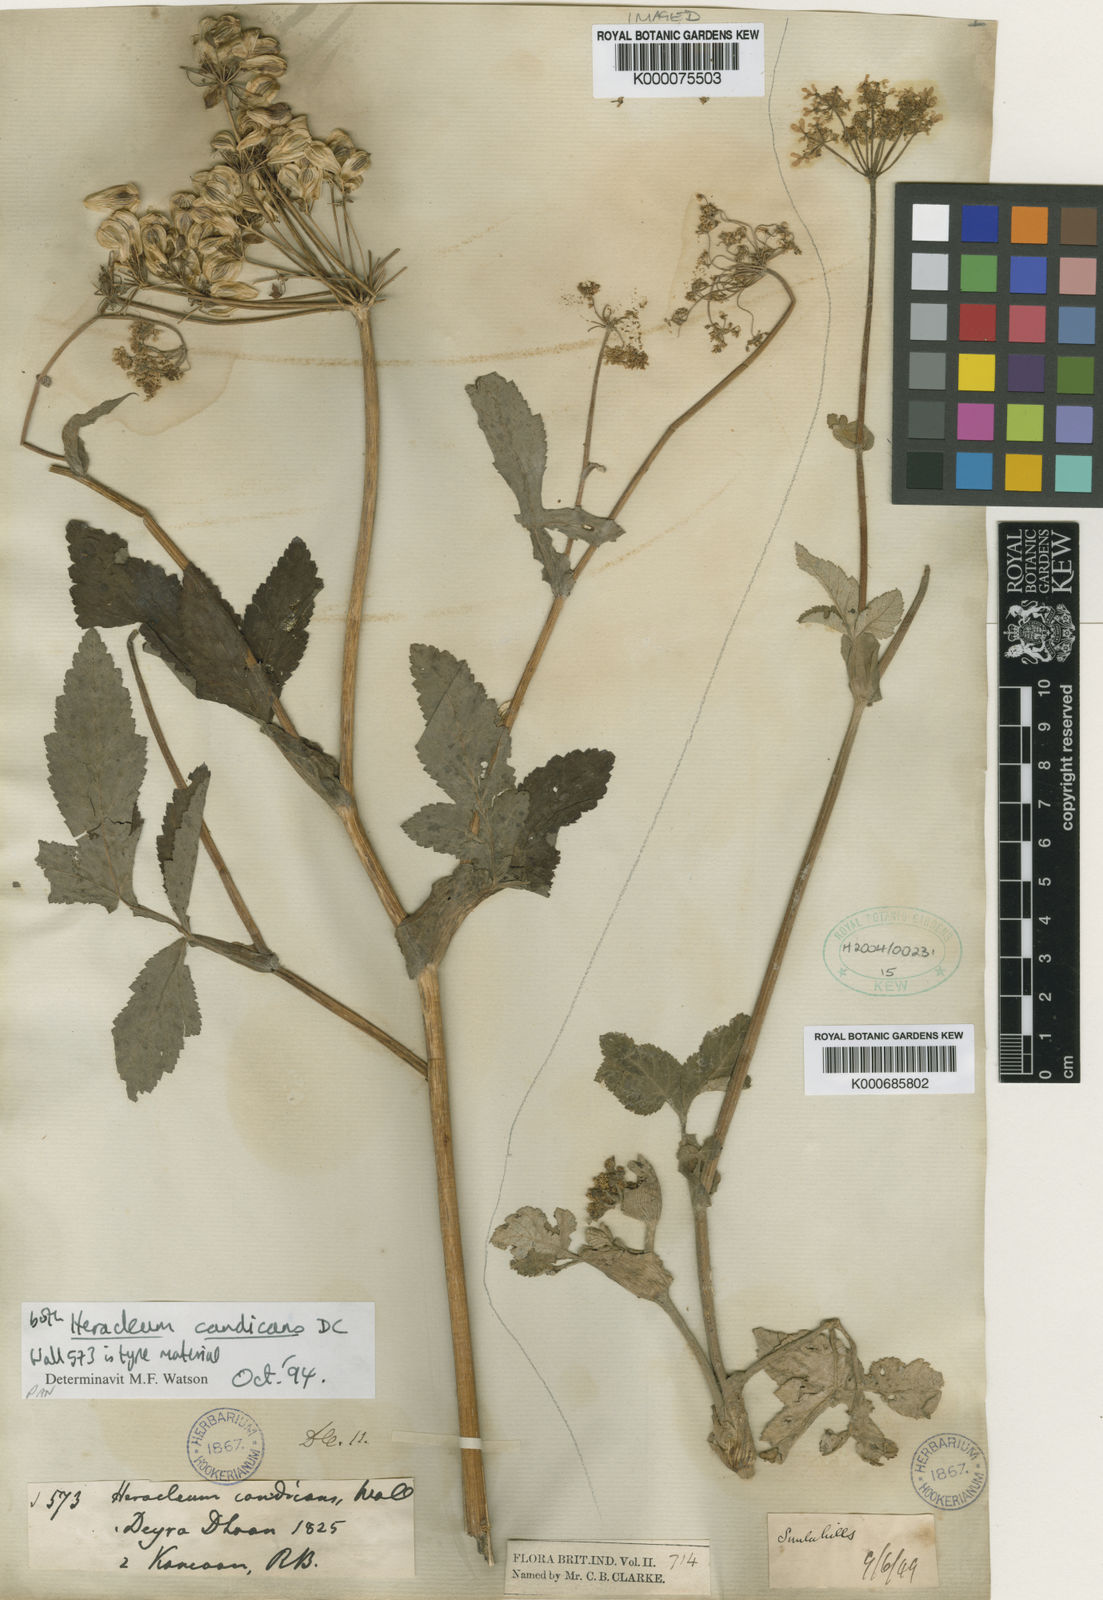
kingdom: Plantae
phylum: Tracheophyta
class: Magnoliopsida
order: Apiales
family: Apiaceae
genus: Tetrataenium
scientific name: Tetrataenium candicans
